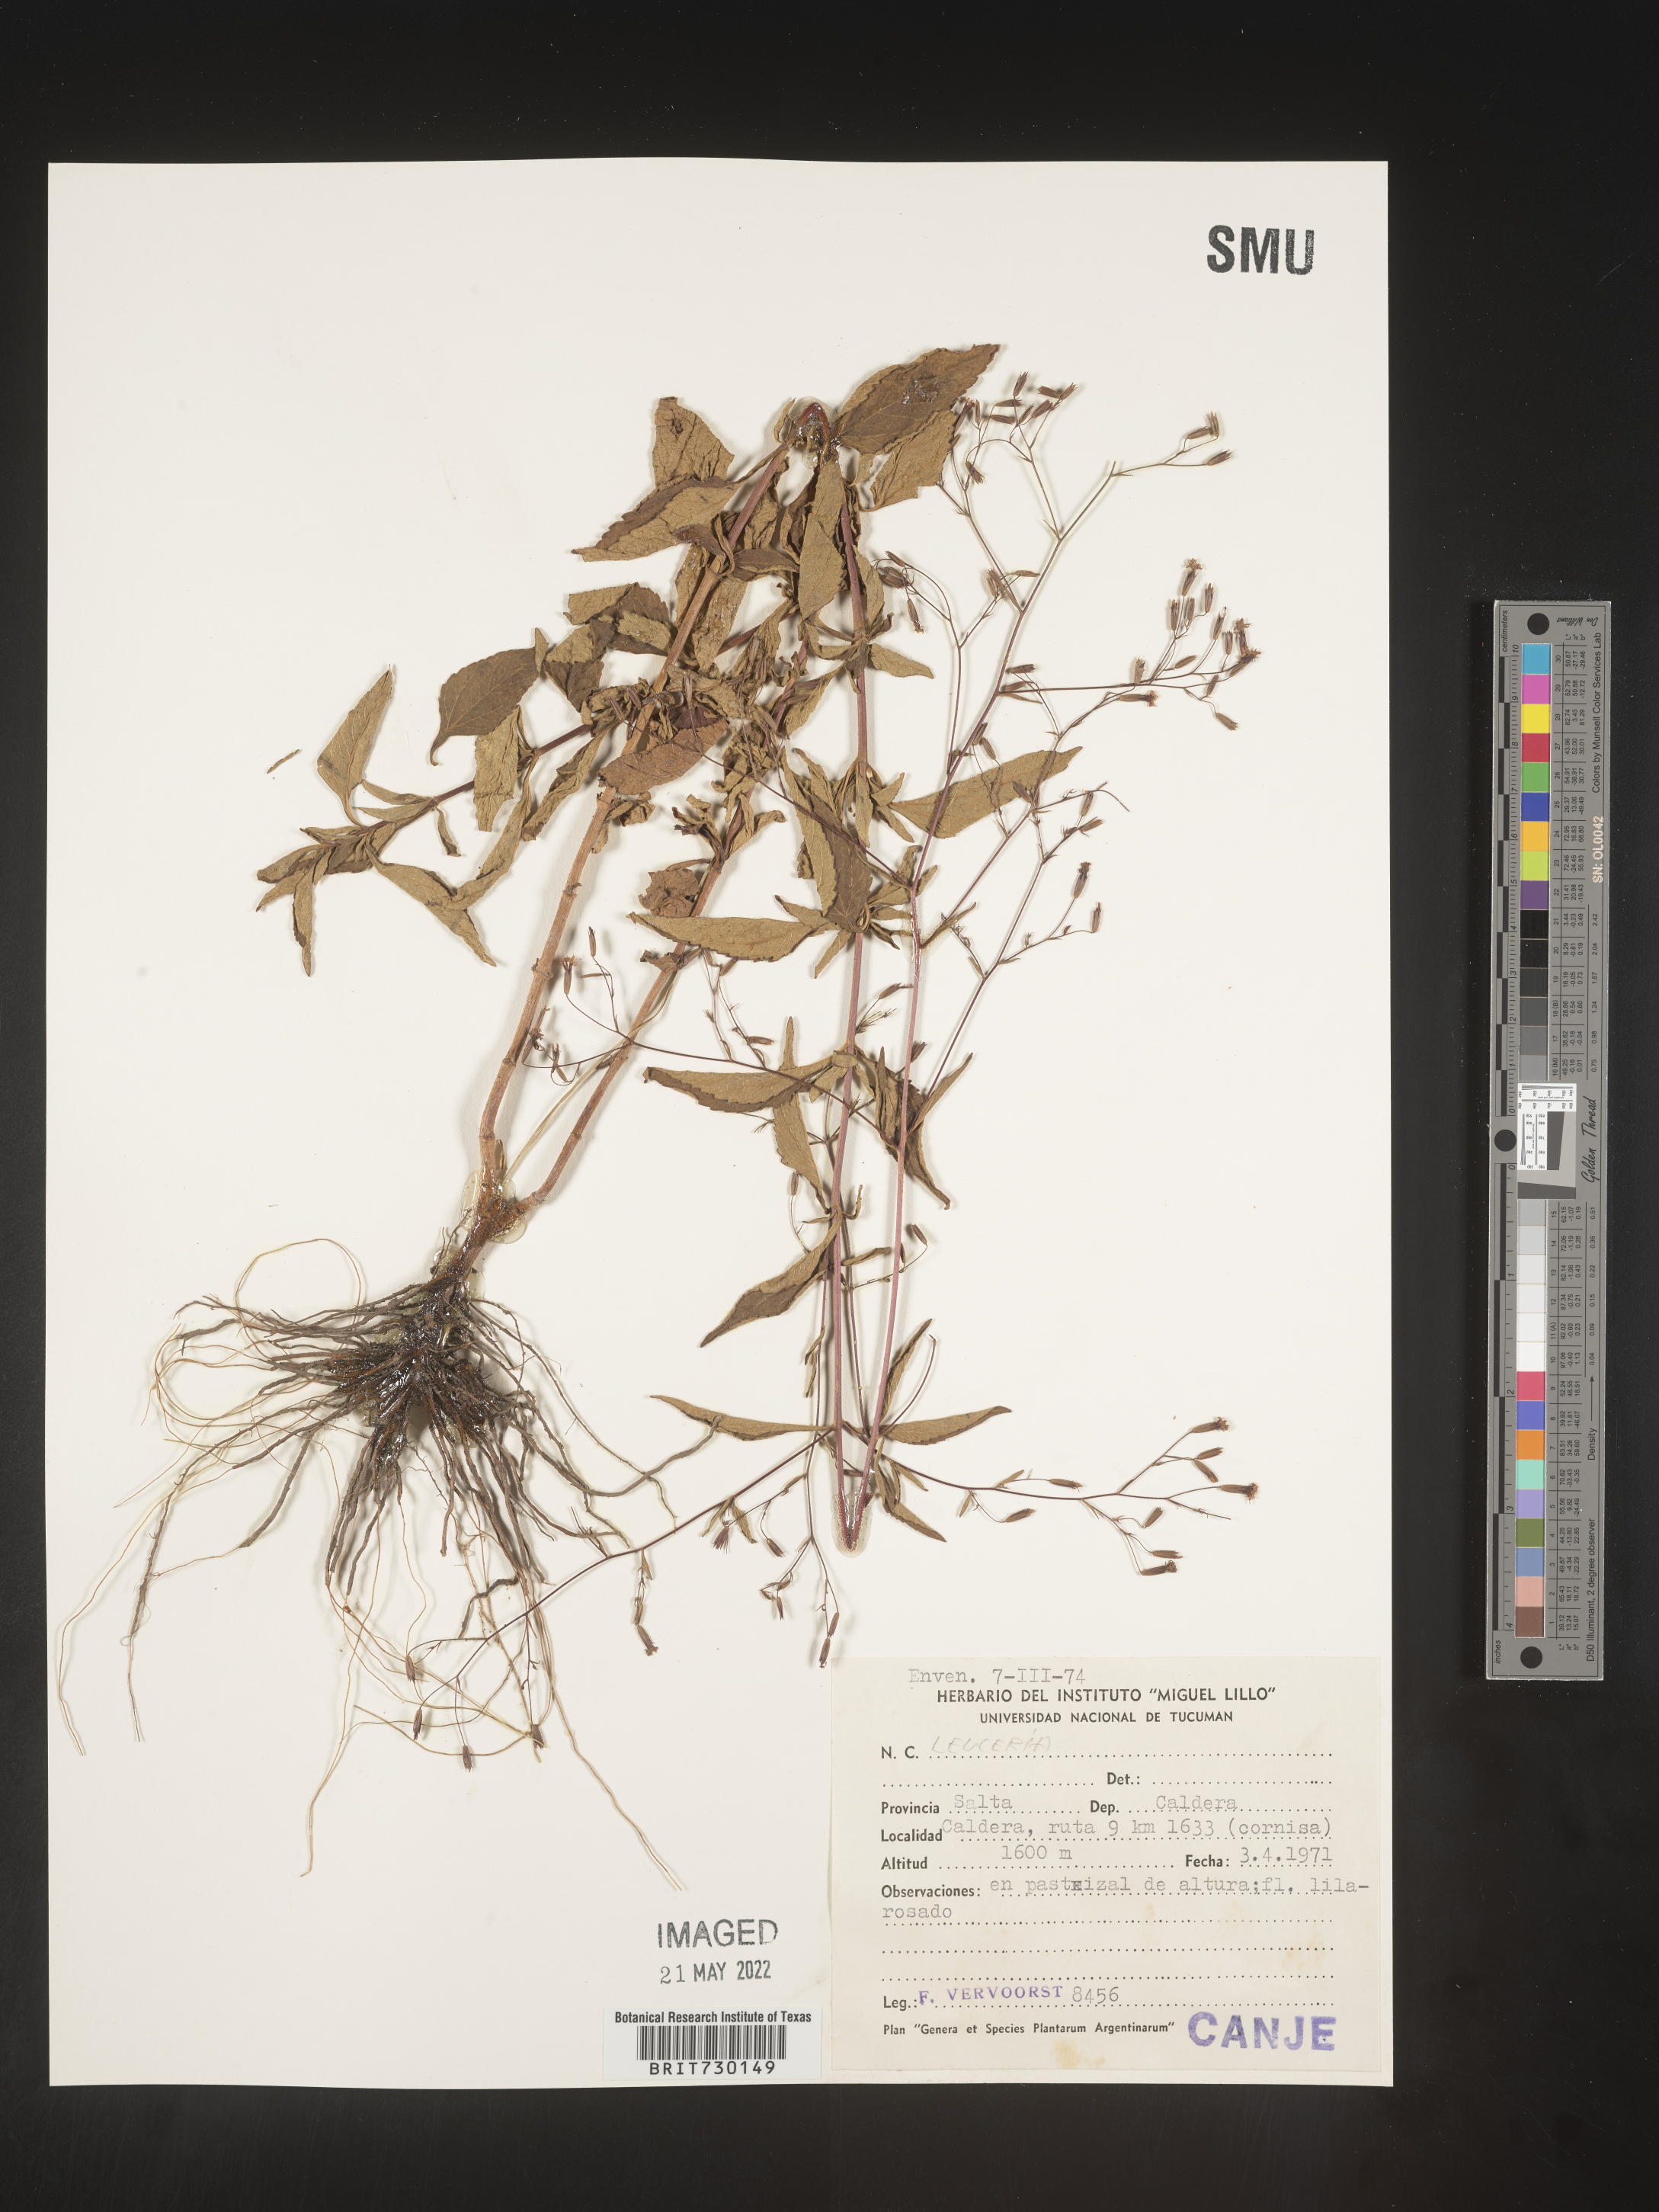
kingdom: Plantae
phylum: Tracheophyta
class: Magnoliopsida
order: Asterales
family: Asteraceae
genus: Leucheria
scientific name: Leucheria
